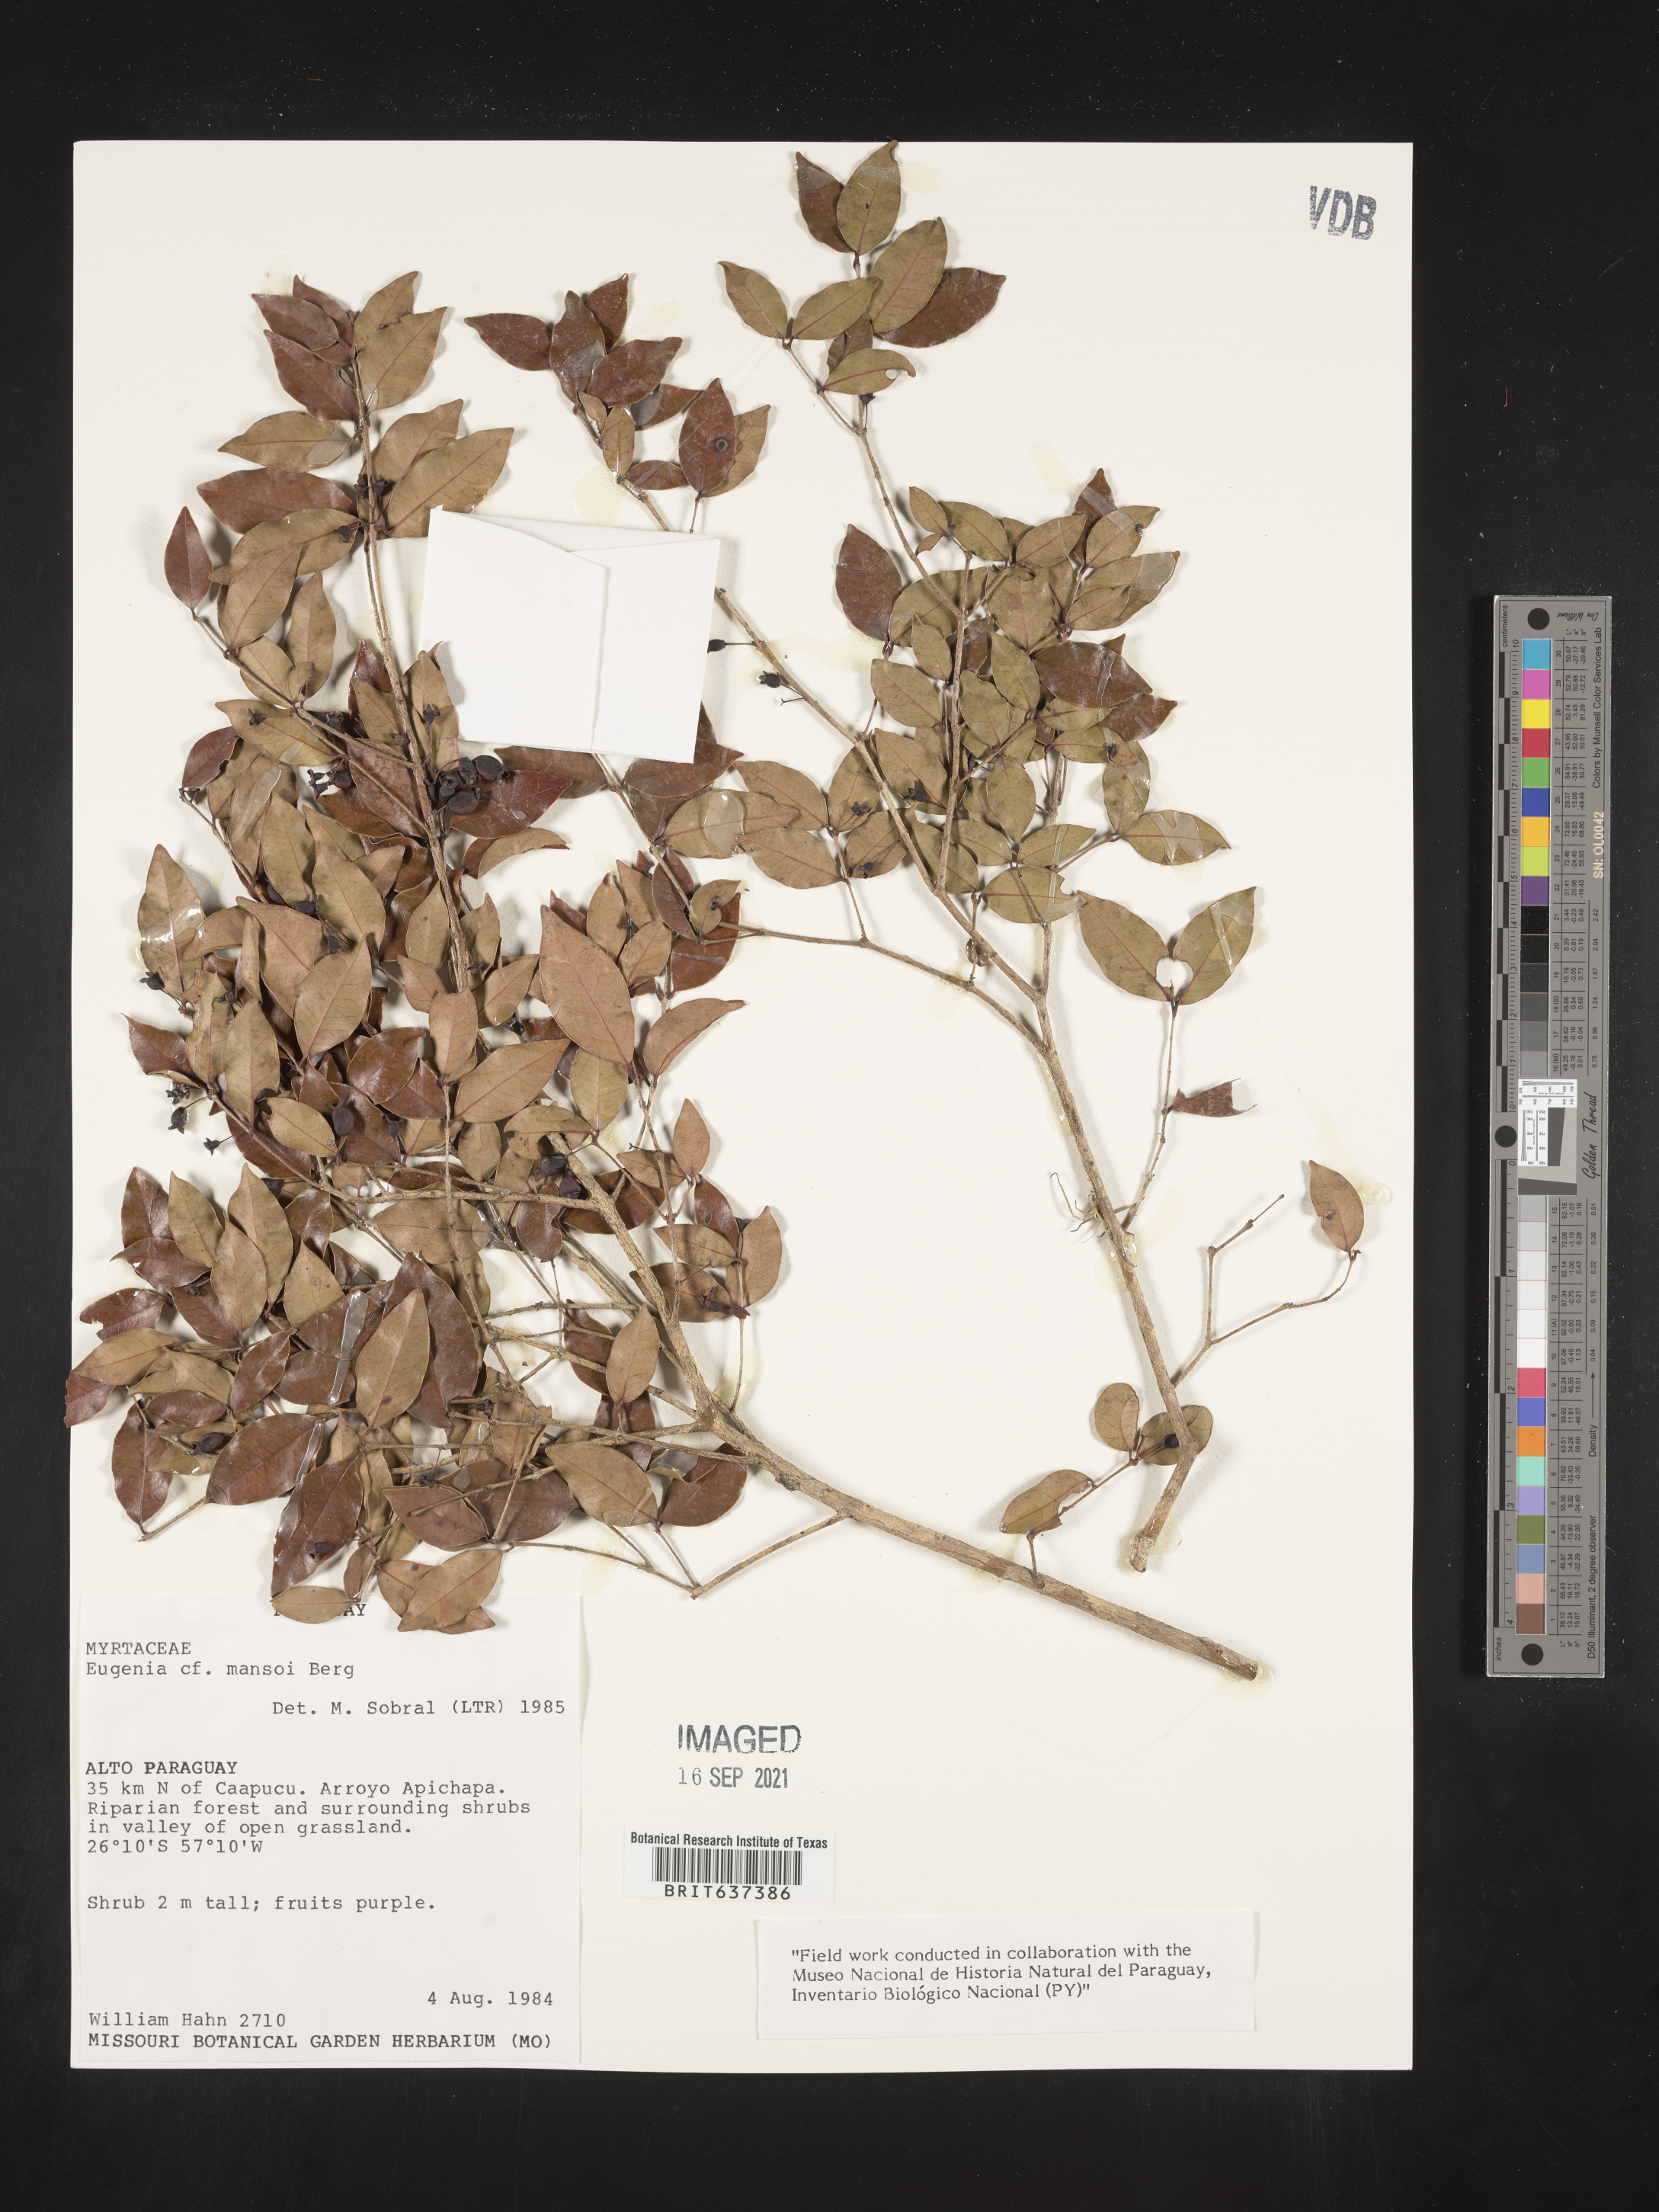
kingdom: Plantae
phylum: Tracheophyta
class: Magnoliopsida
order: Myrtales
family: Myrtaceae
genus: Eugenia
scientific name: Eugenia
